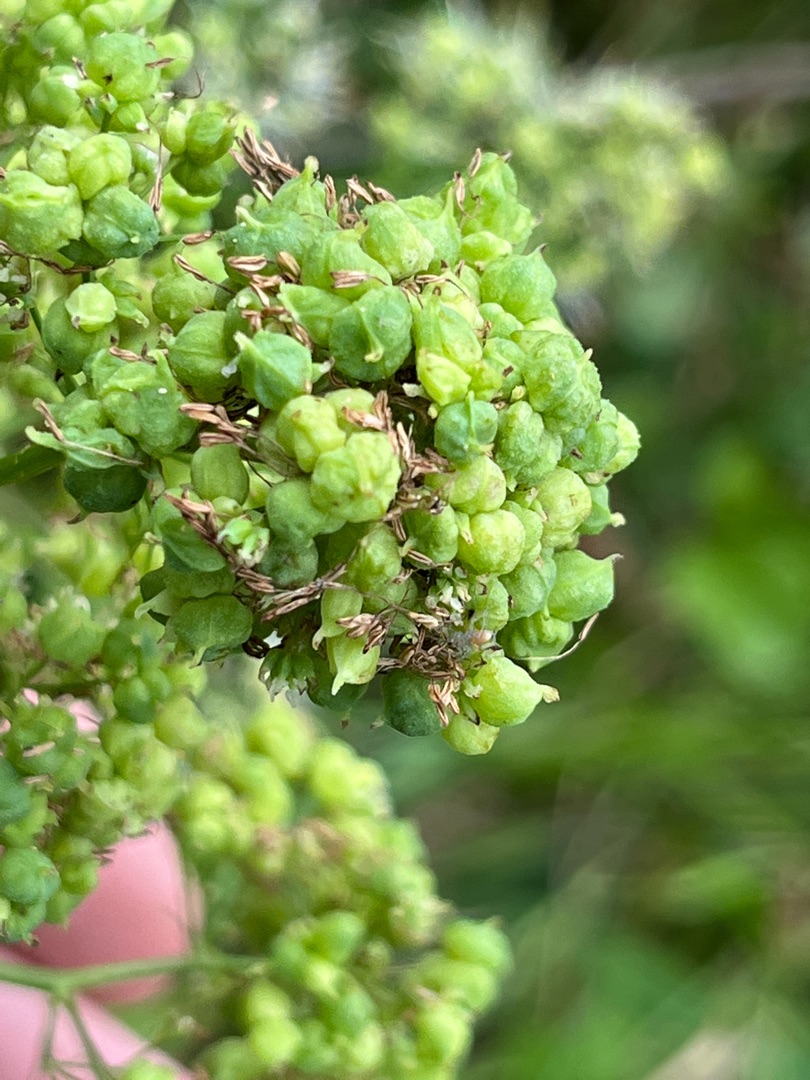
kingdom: Animalia
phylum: Arthropoda
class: Insecta
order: Diptera
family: Cecidomyiidae
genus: Ametrodiplosis
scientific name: Ametrodiplosis thalictricola
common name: Frøstjernegalmyg
